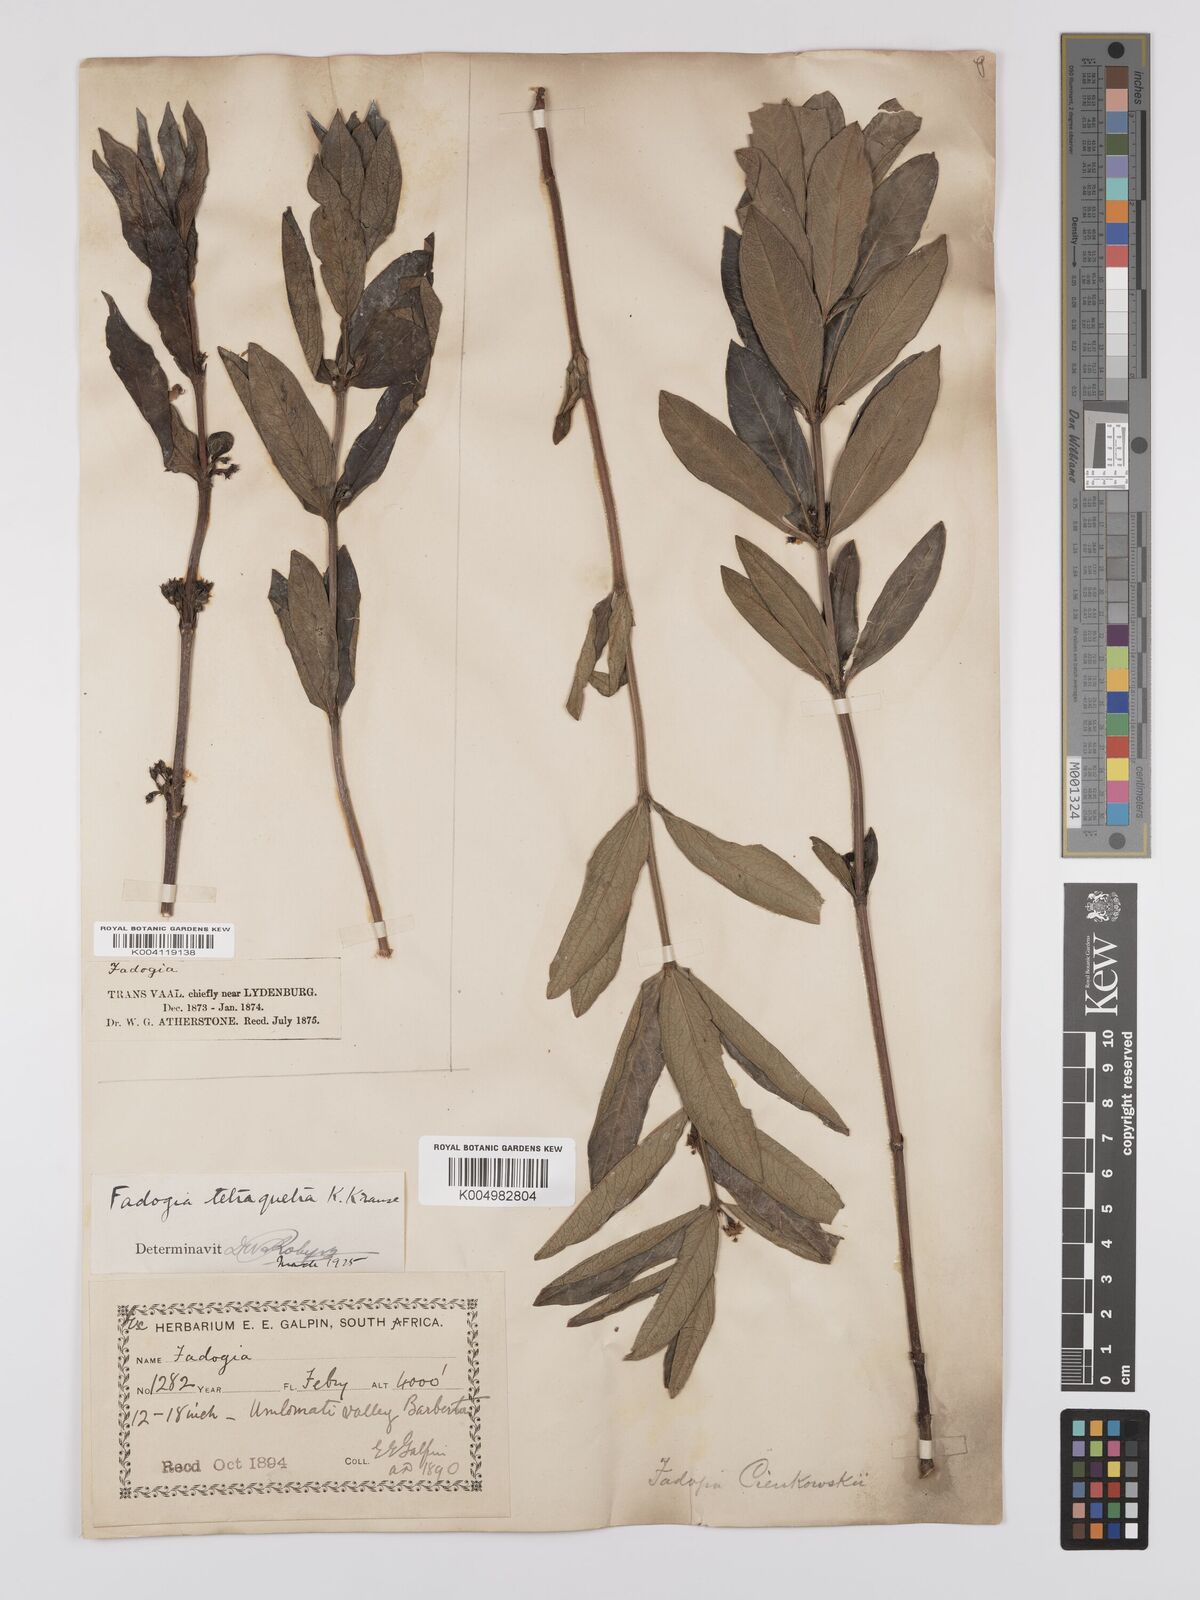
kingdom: Plantae
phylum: Tracheophyta
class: Magnoliopsida
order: Gentianales
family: Rubiaceae
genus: Fadogia
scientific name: Fadogia tetraquetra
